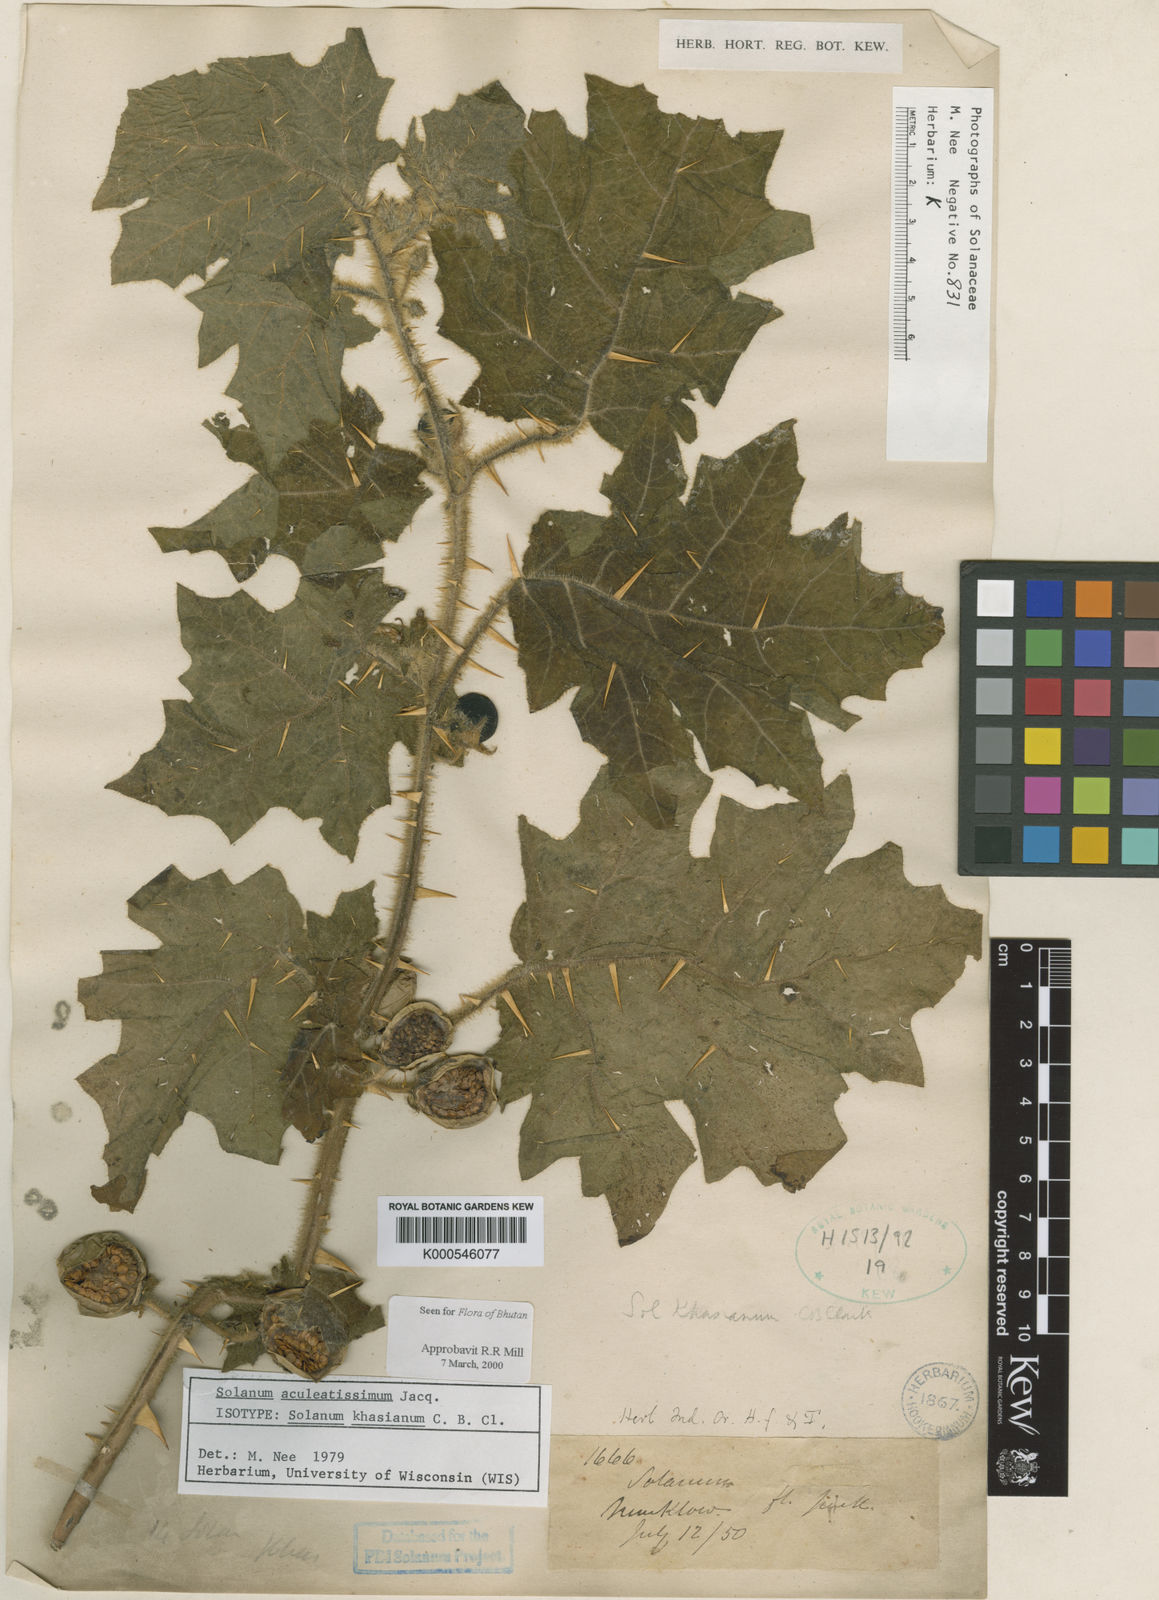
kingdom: Plantae
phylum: Tracheophyta
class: Magnoliopsida
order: Solanales
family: Solanaceae
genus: Solanum
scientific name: Solanum aculeatissimum
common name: Dutch eggplant
